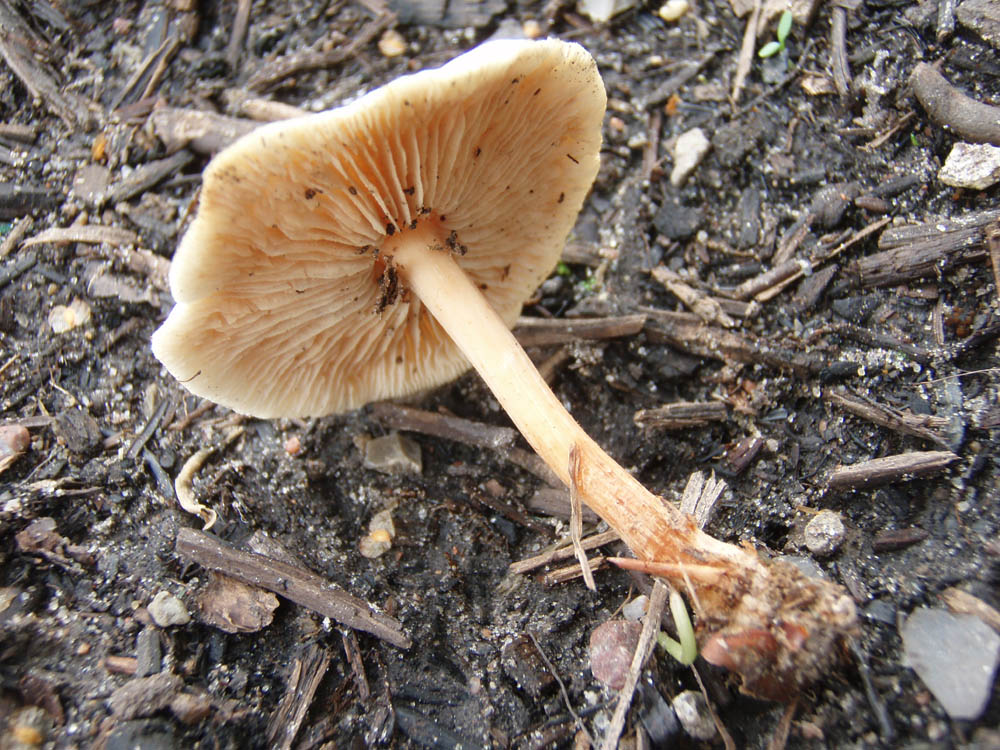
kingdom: Fungi
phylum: Basidiomycota
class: Agaricomycetes
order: Agaricales
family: Omphalotaceae
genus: Gymnopus
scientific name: Gymnopus dryophilus
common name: løv-fladhat
